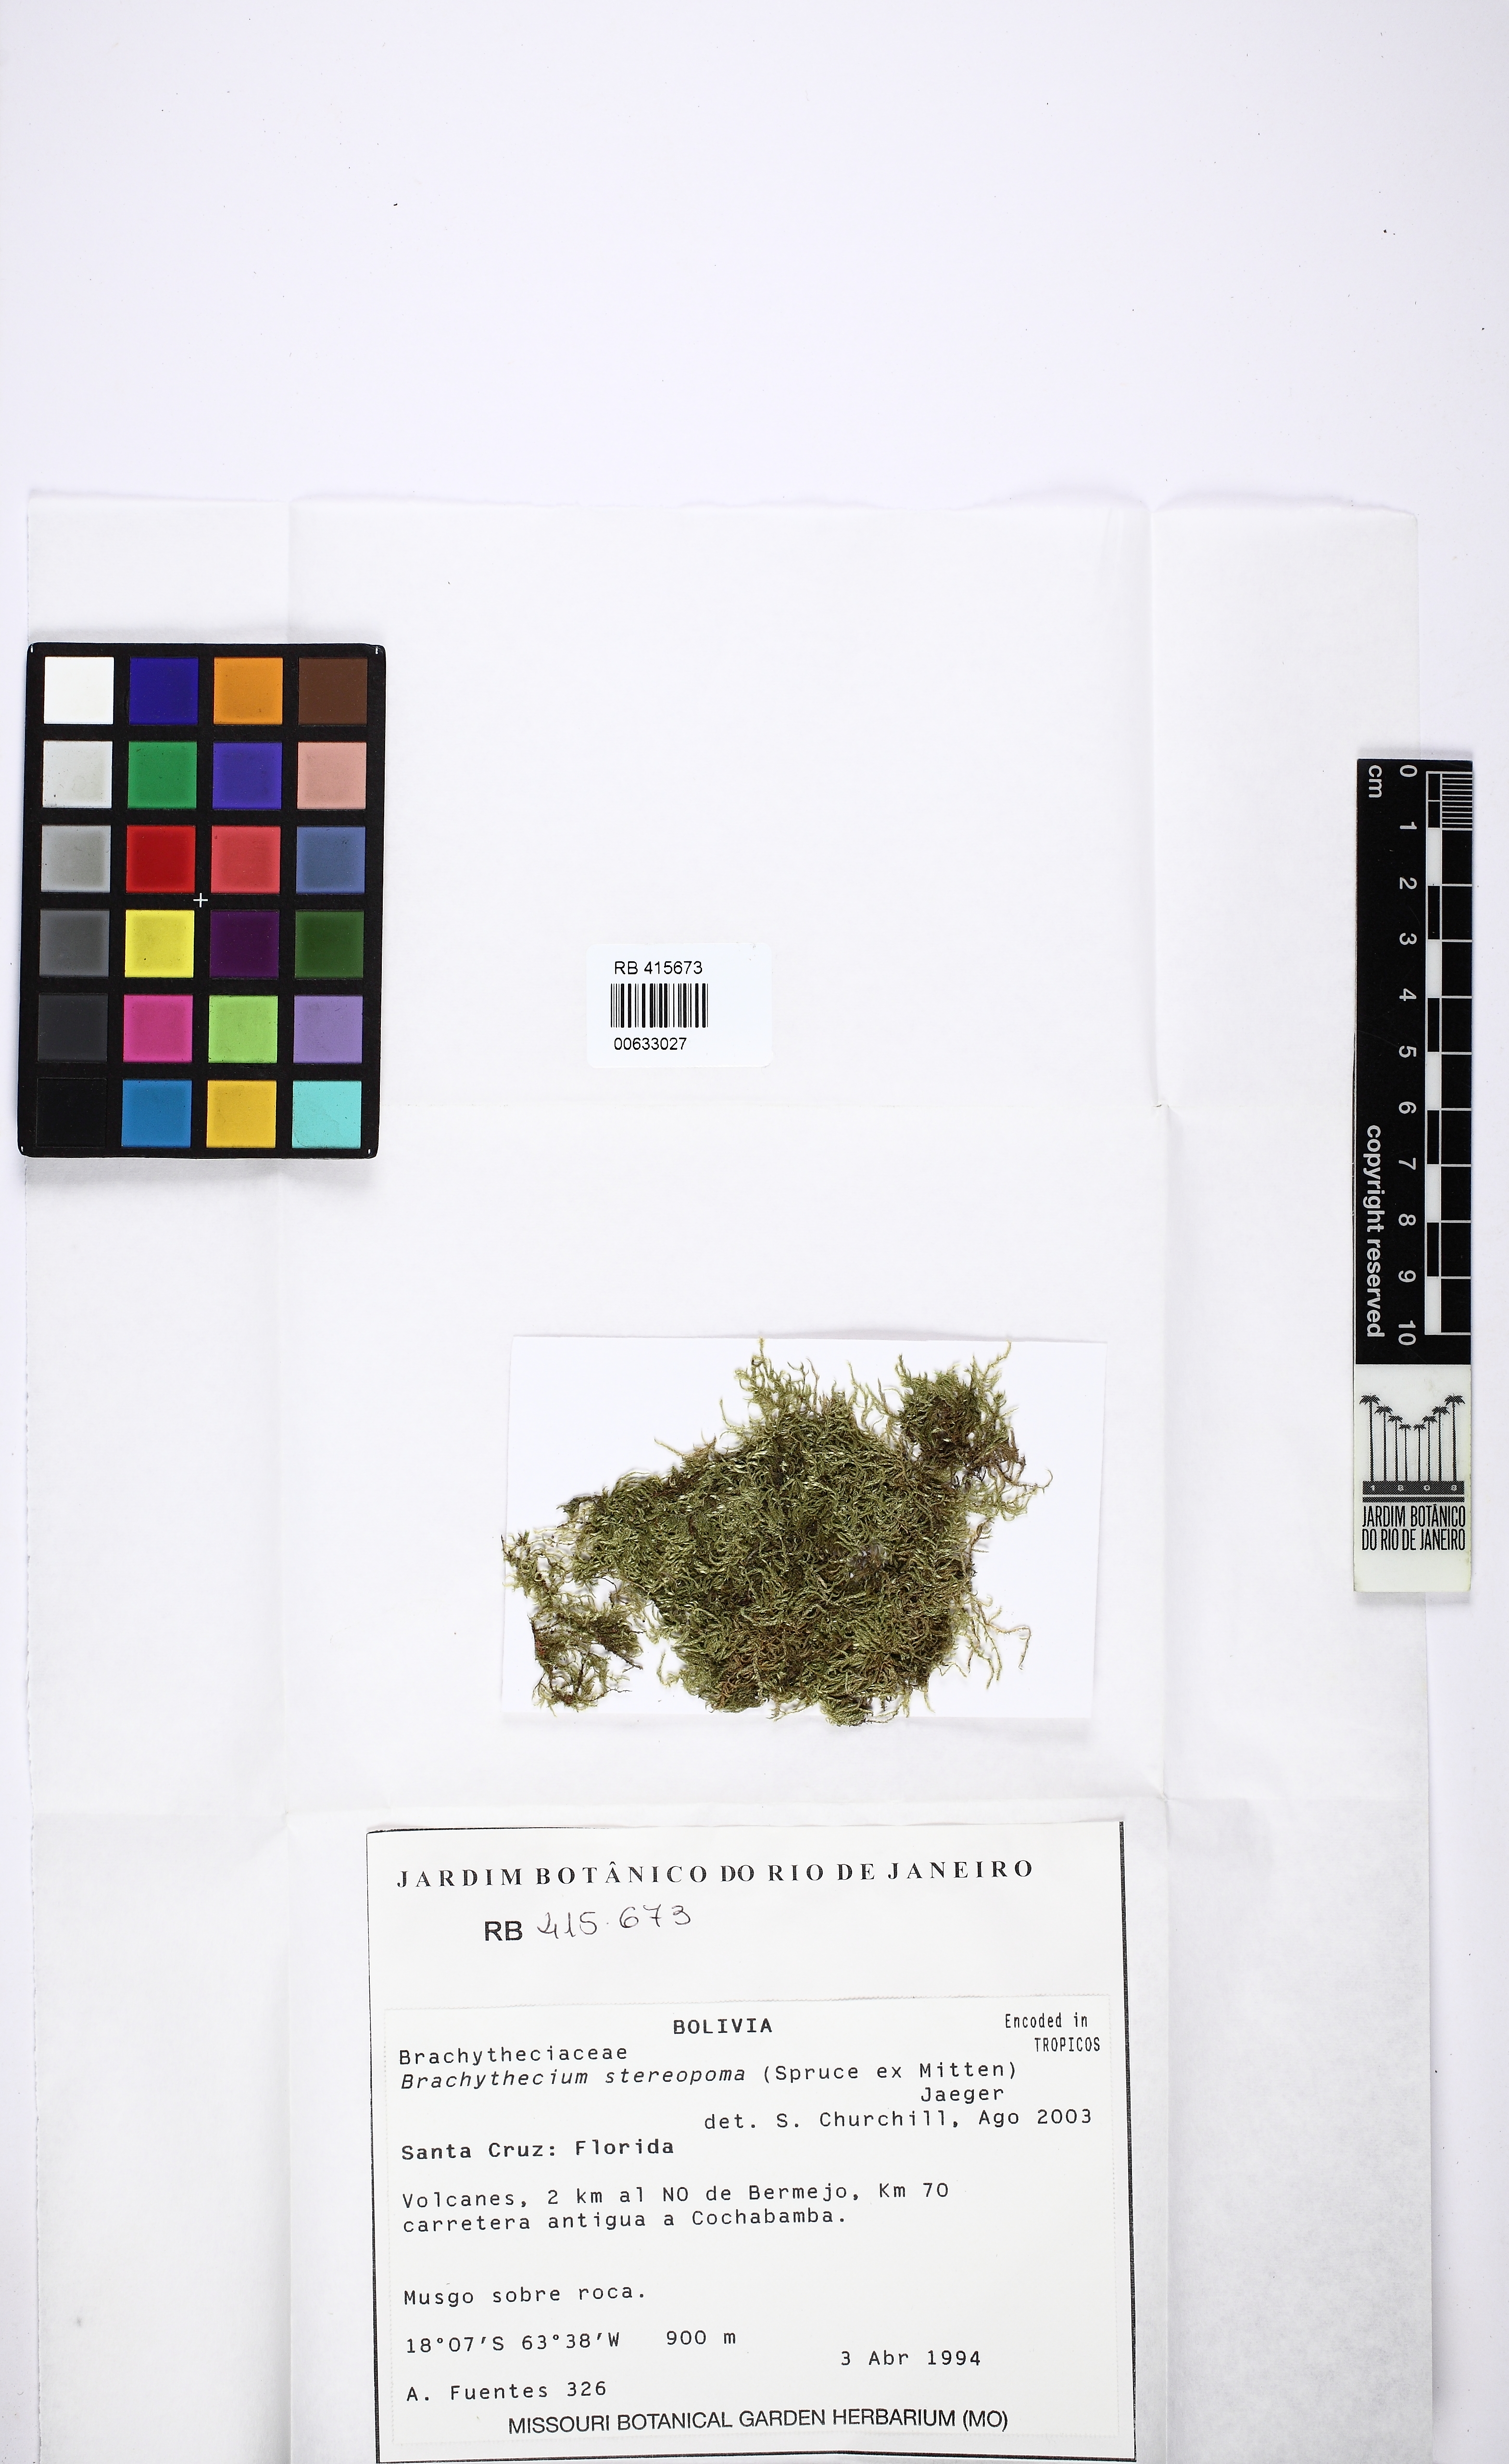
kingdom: Plantae
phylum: Bryophyta
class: Bryopsida
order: Hypnales
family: Brachytheciaceae
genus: Brachythecium
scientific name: Brachythecium ruderale
